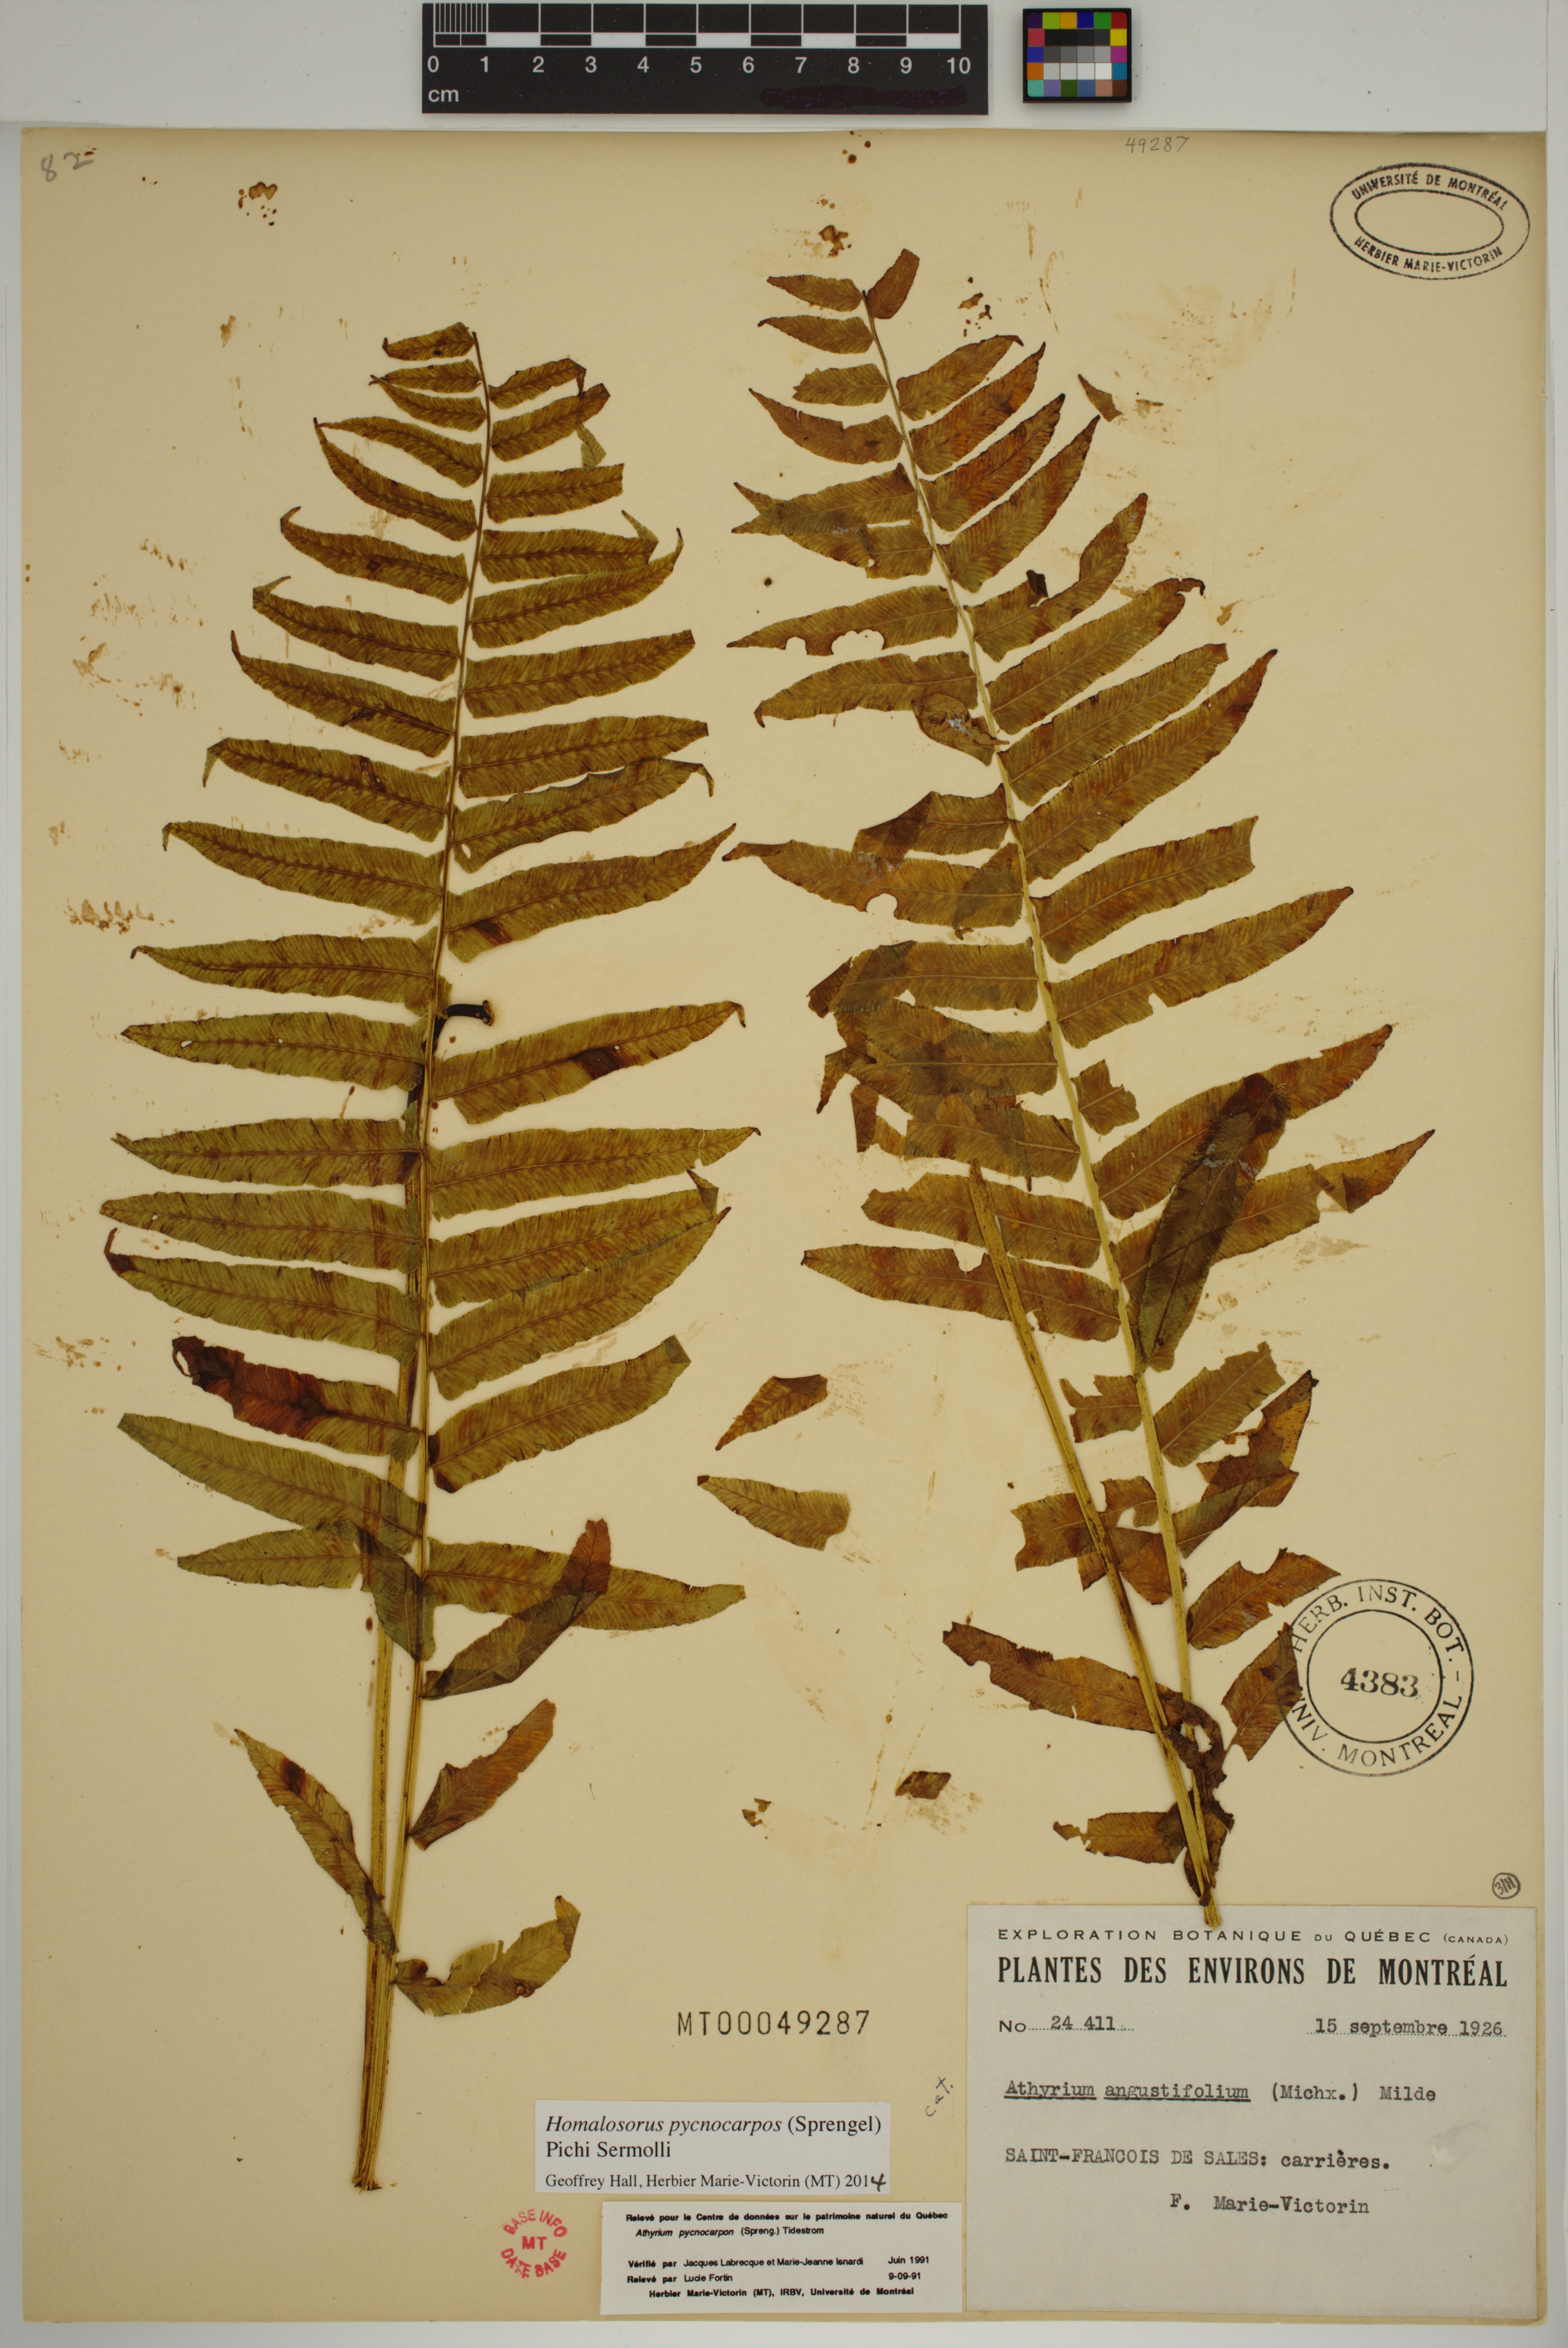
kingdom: Plantae
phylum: Tracheophyta
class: Polypodiopsida
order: Polypodiales
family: Diplaziopsidaceae
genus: Homalosorus
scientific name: Homalosorus pycnocarpos
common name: Glade fern
